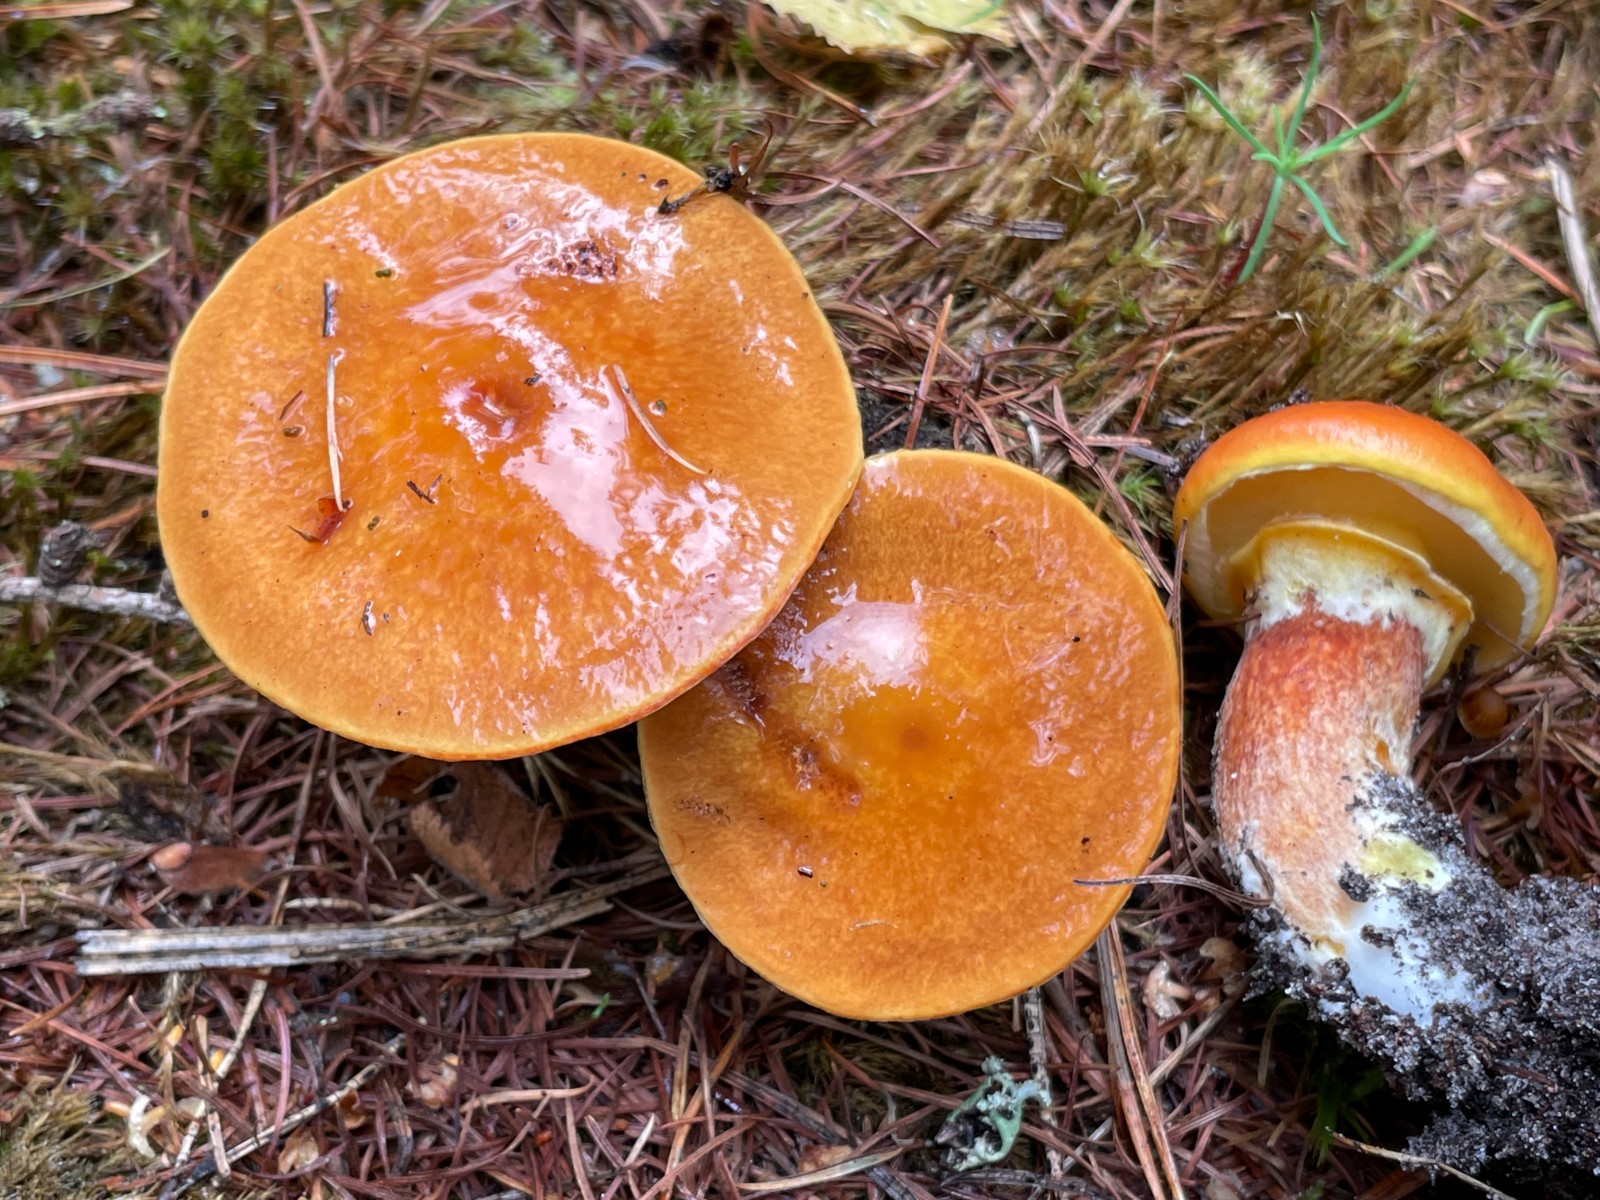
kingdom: Fungi
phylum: Basidiomycota
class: Agaricomycetes
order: Boletales
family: Suillaceae
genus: Suillus
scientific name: Suillus grevillei
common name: lærke-slimrørhat
